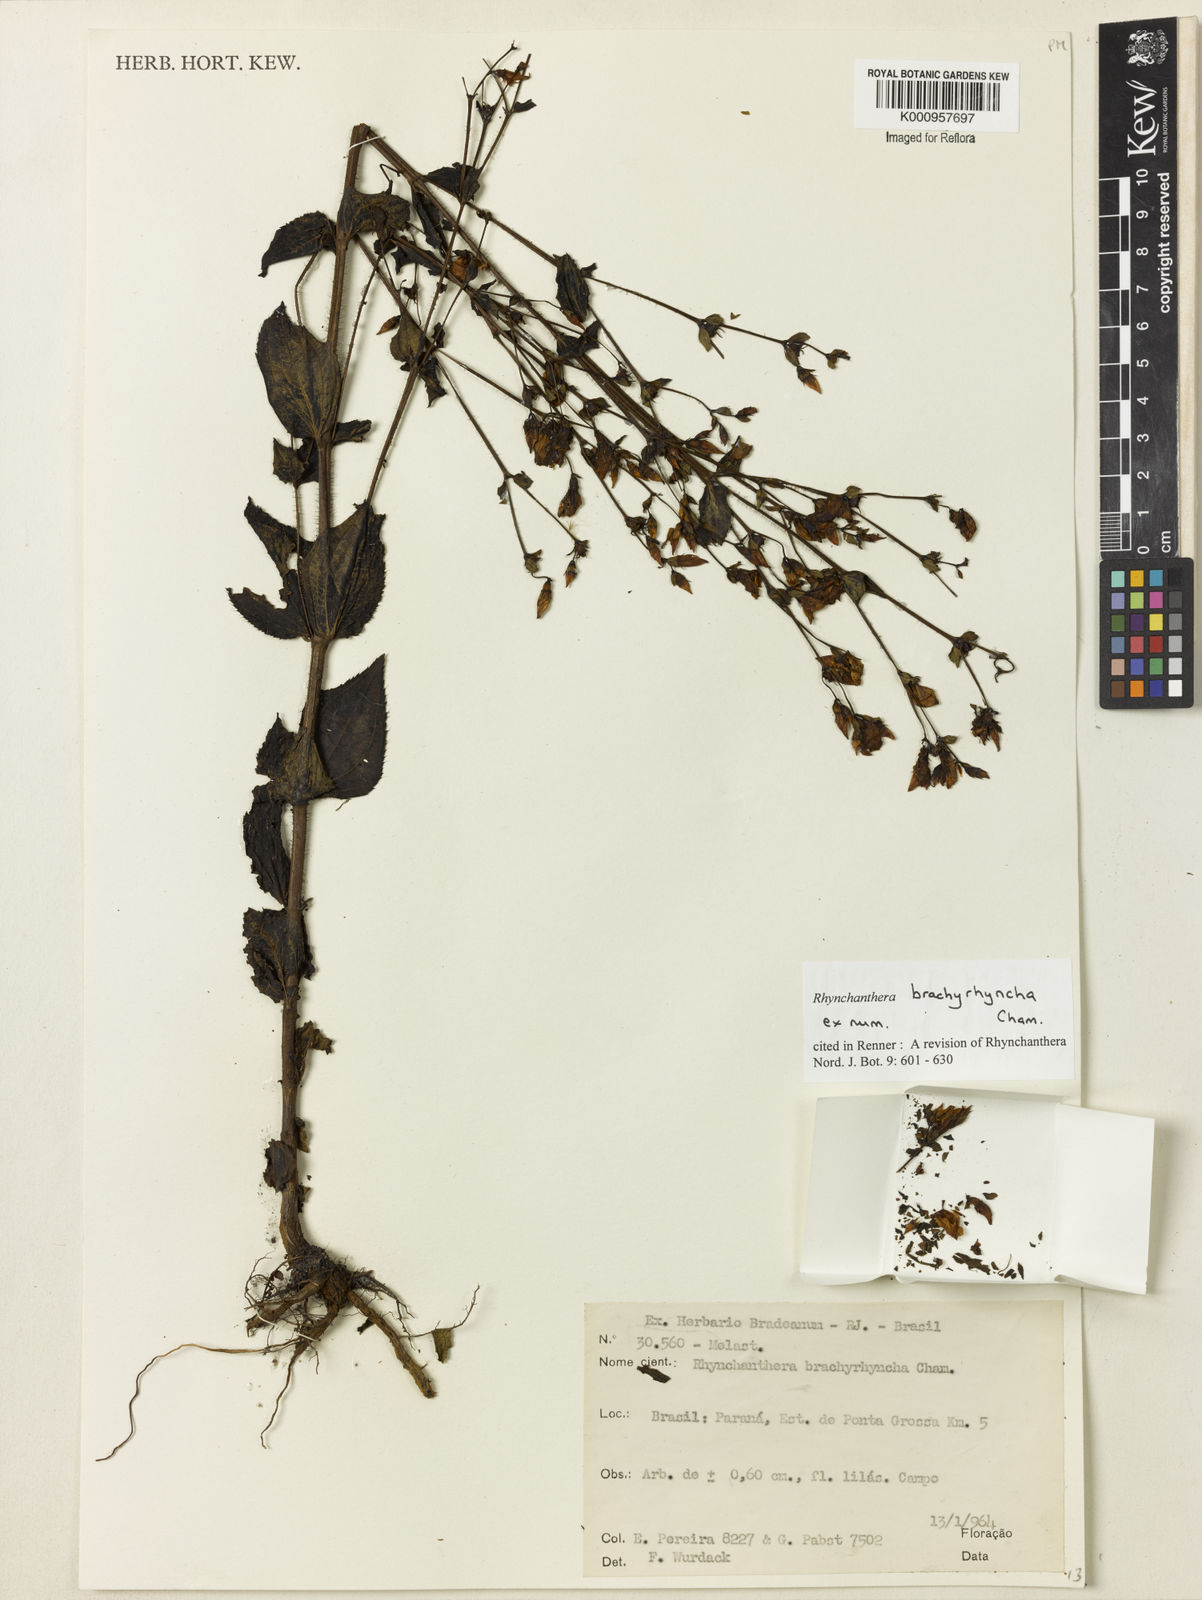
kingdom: Plantae
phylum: Tracheophyta
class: Magnoliopsida
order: Myrtales
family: Melastomataceae
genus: Rhynchanthera
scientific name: Rhynchanthera brachyrhyncha
